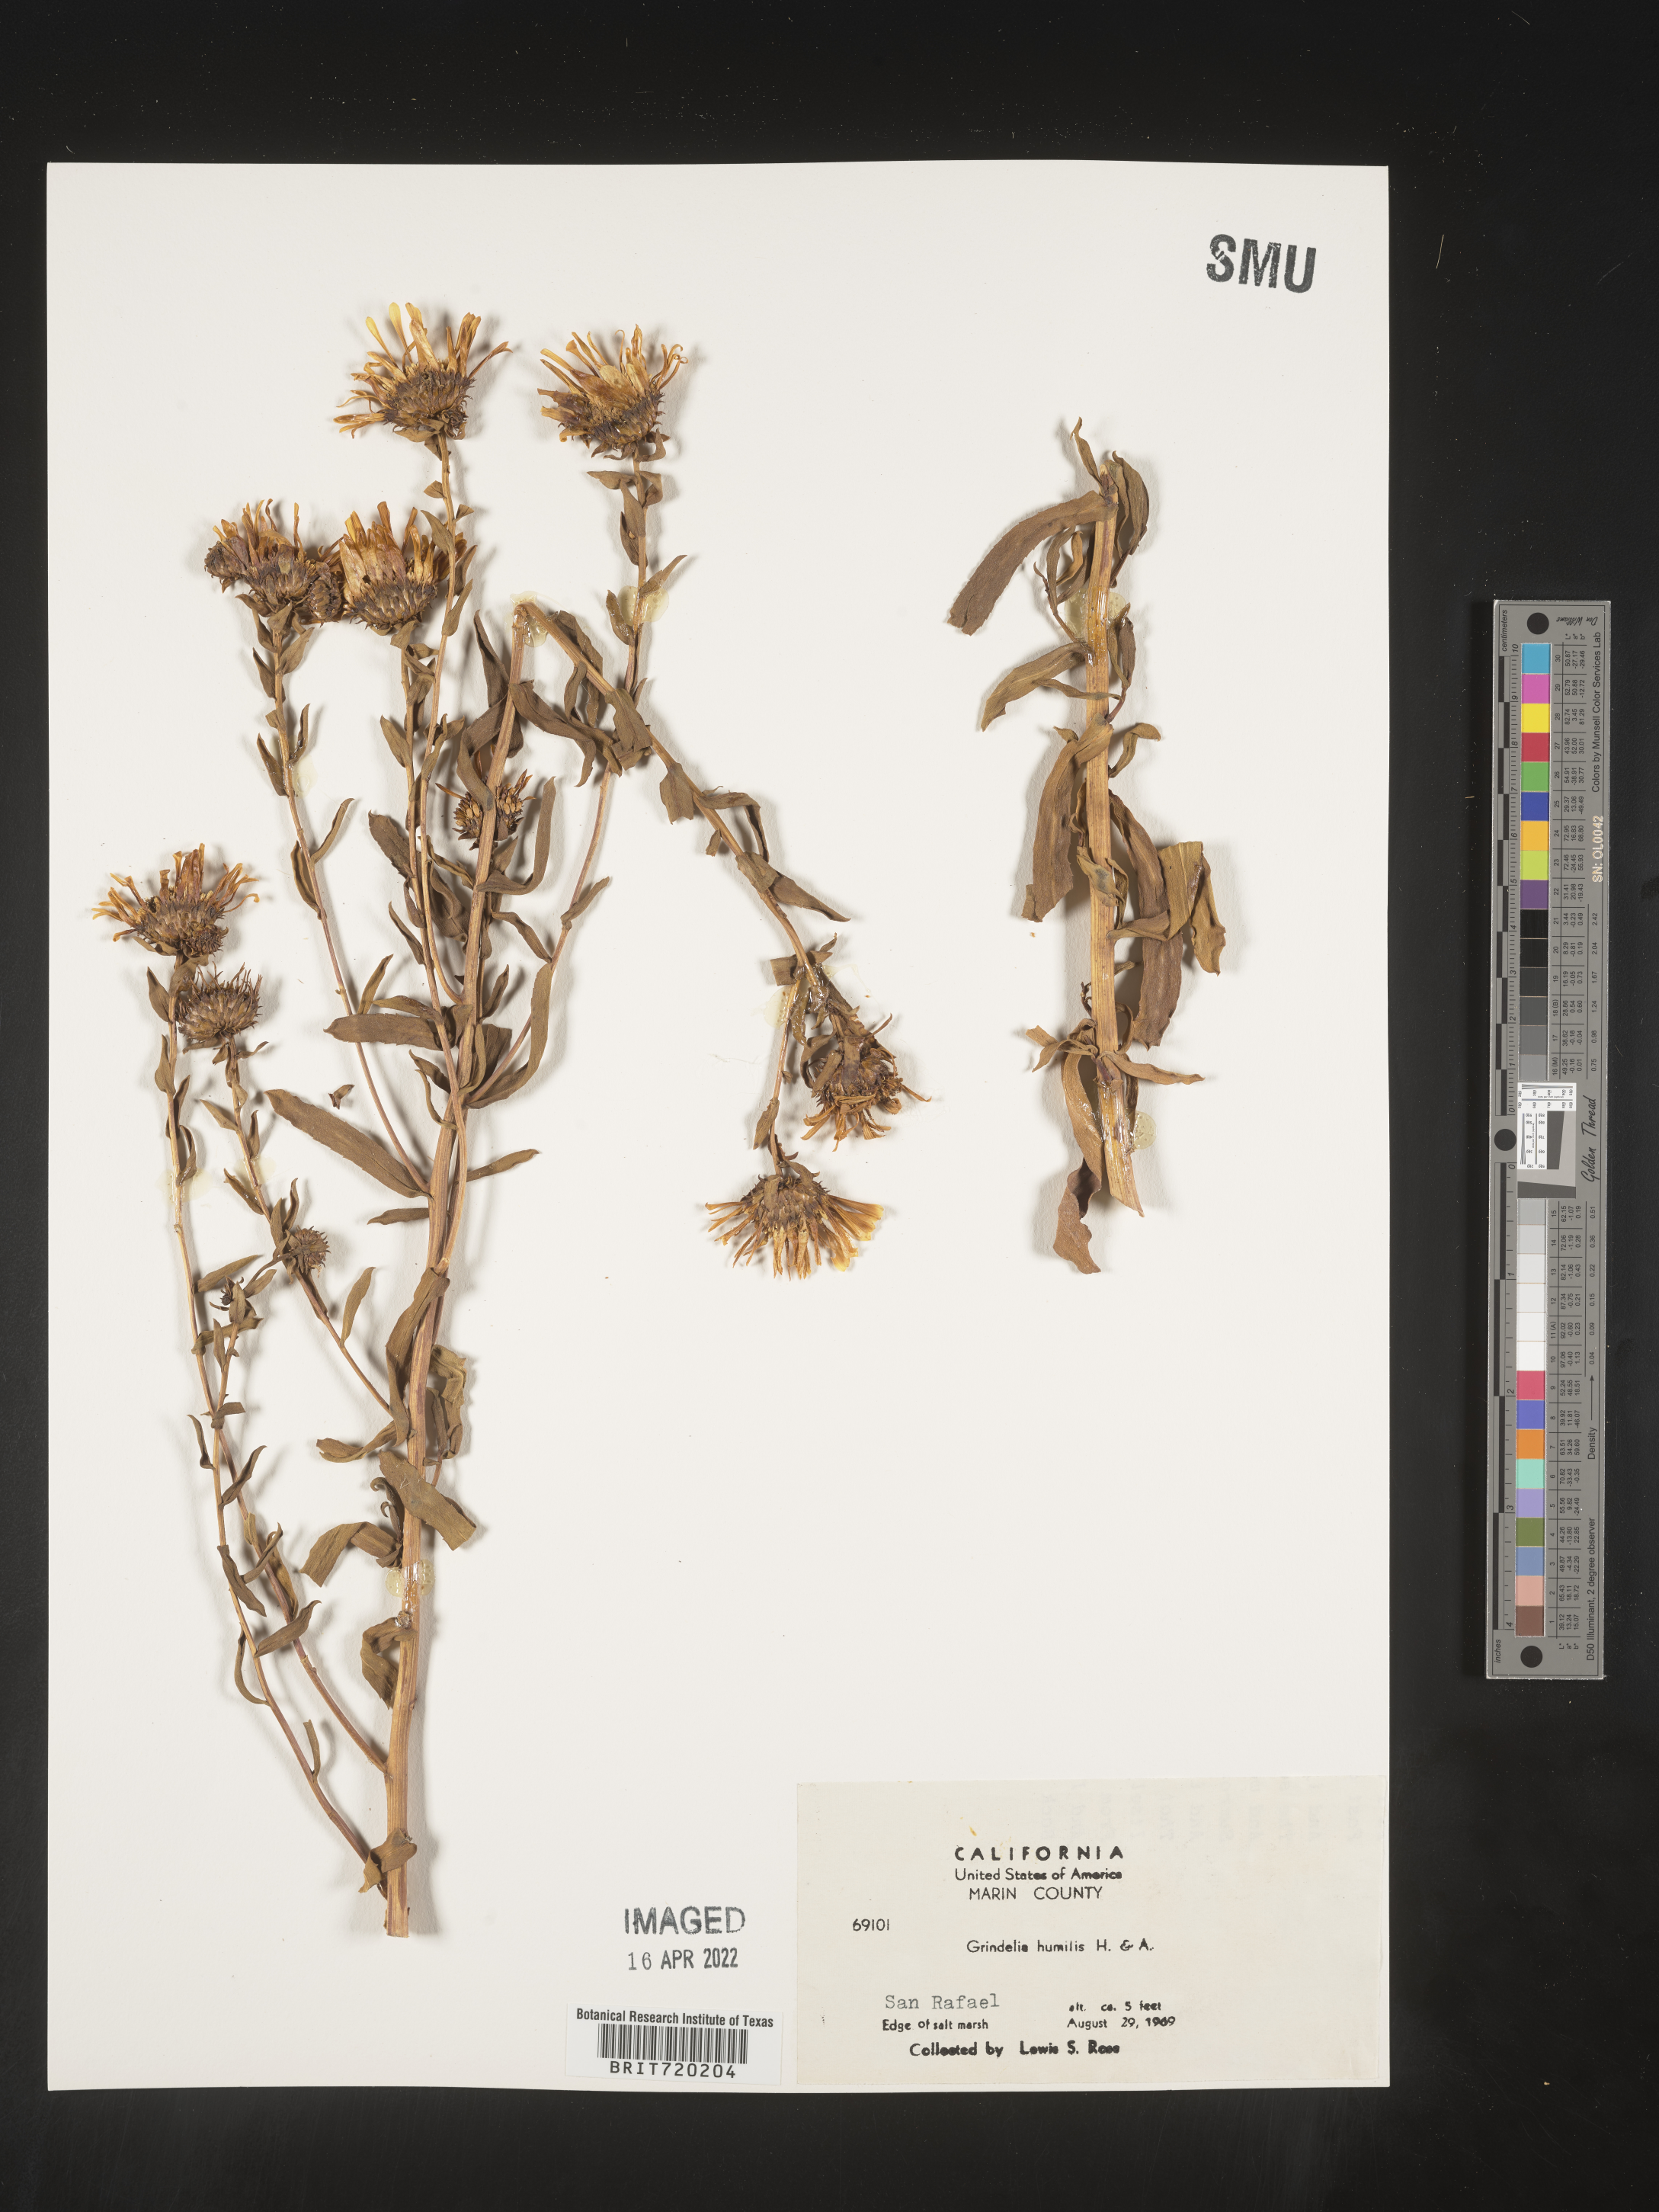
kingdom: Plantae
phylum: Tracheophyta
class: Magnoliopsida
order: Asterales
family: Asteraceae
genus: Grindelia
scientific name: Grindelia hirsutula
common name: Hairy gumweed
